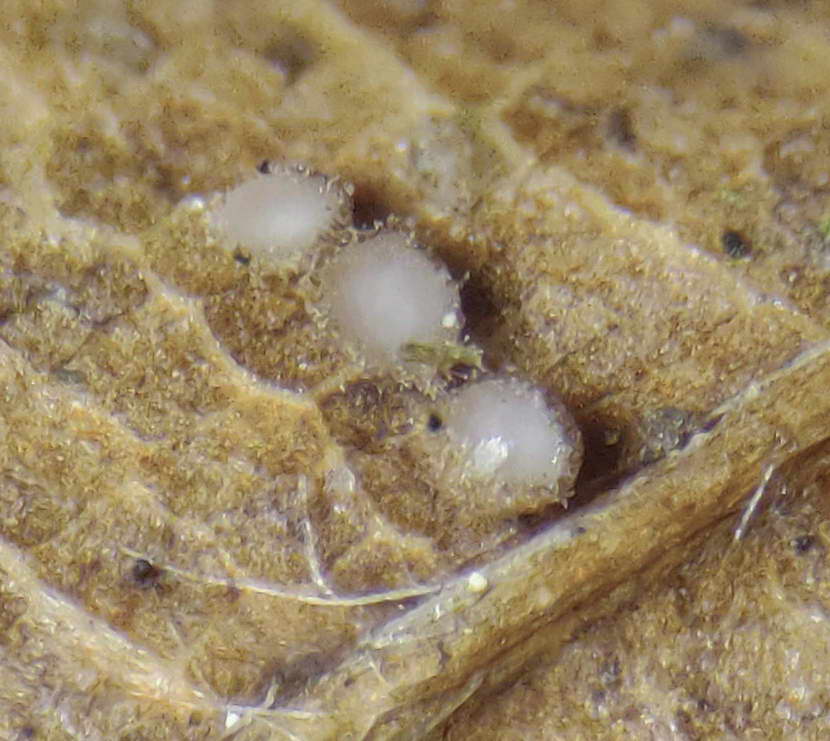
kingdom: Fungi
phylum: Ascomycota
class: Leotiomycetes
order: Helotiales
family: Lachnaceae
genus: Brunnipila
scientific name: Brunnipila fuscescens
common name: bøge-frynseskive
